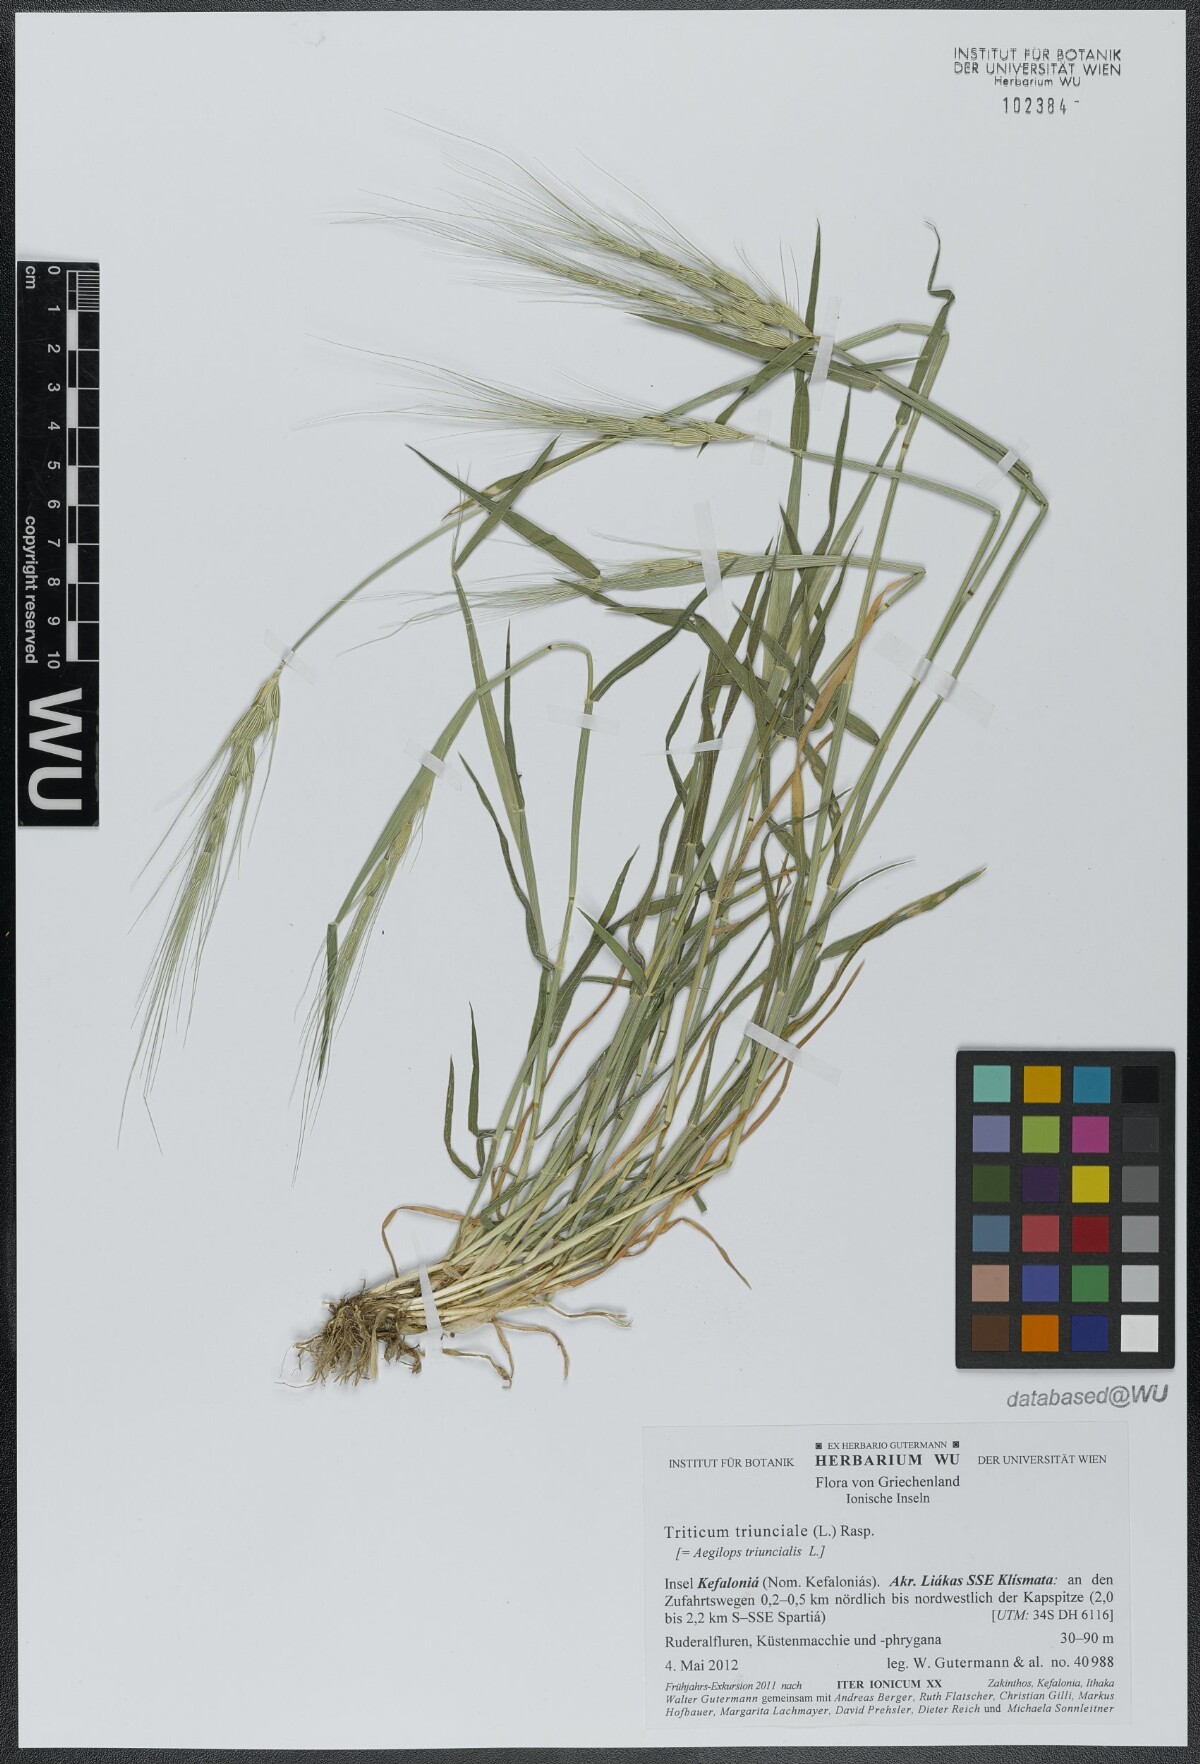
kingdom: Plantae
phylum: Tracheophyta
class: Liliopsida
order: Poales
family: Poaceae
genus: Aegilops
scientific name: Aegilops triuncialis
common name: Barb goat grass
